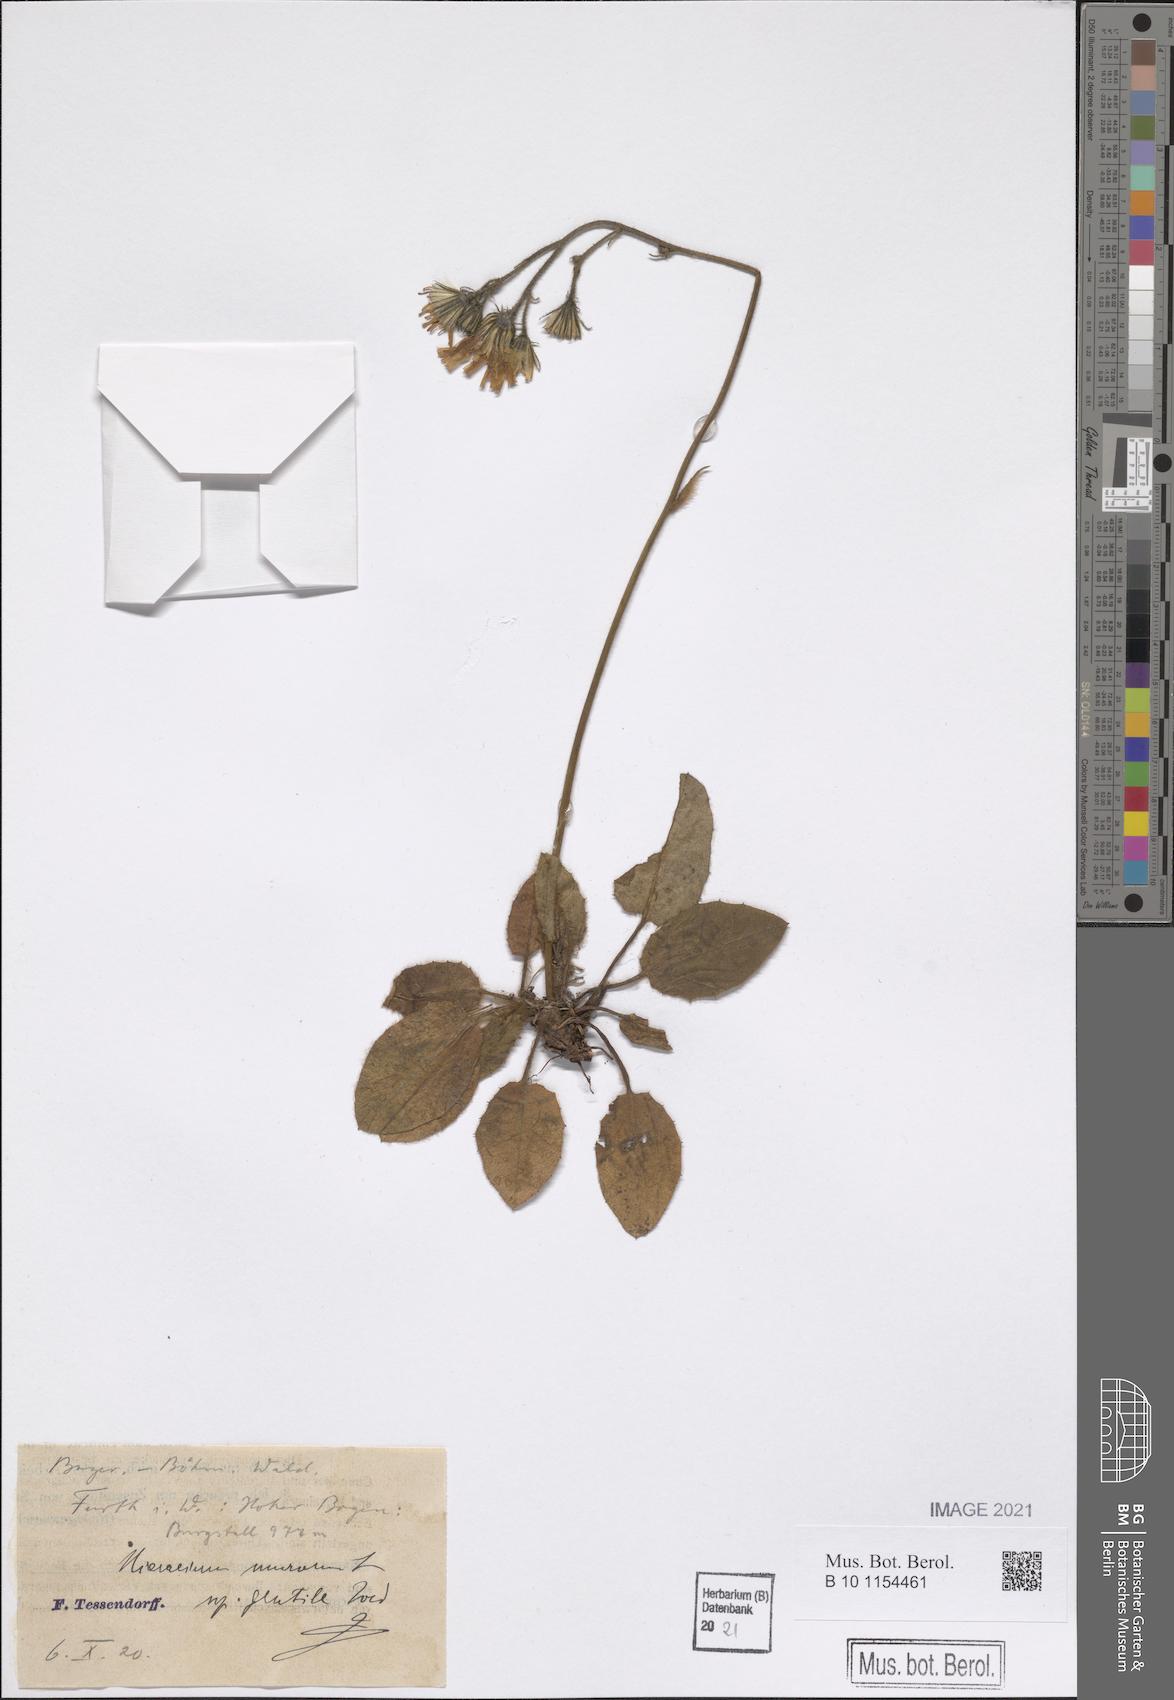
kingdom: Plantae
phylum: Tracheophyta
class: Magnoliopsida
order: Asterales
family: Asteraceae
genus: Hieracium
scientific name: Hieracium murorum
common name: Wall hawkweed
